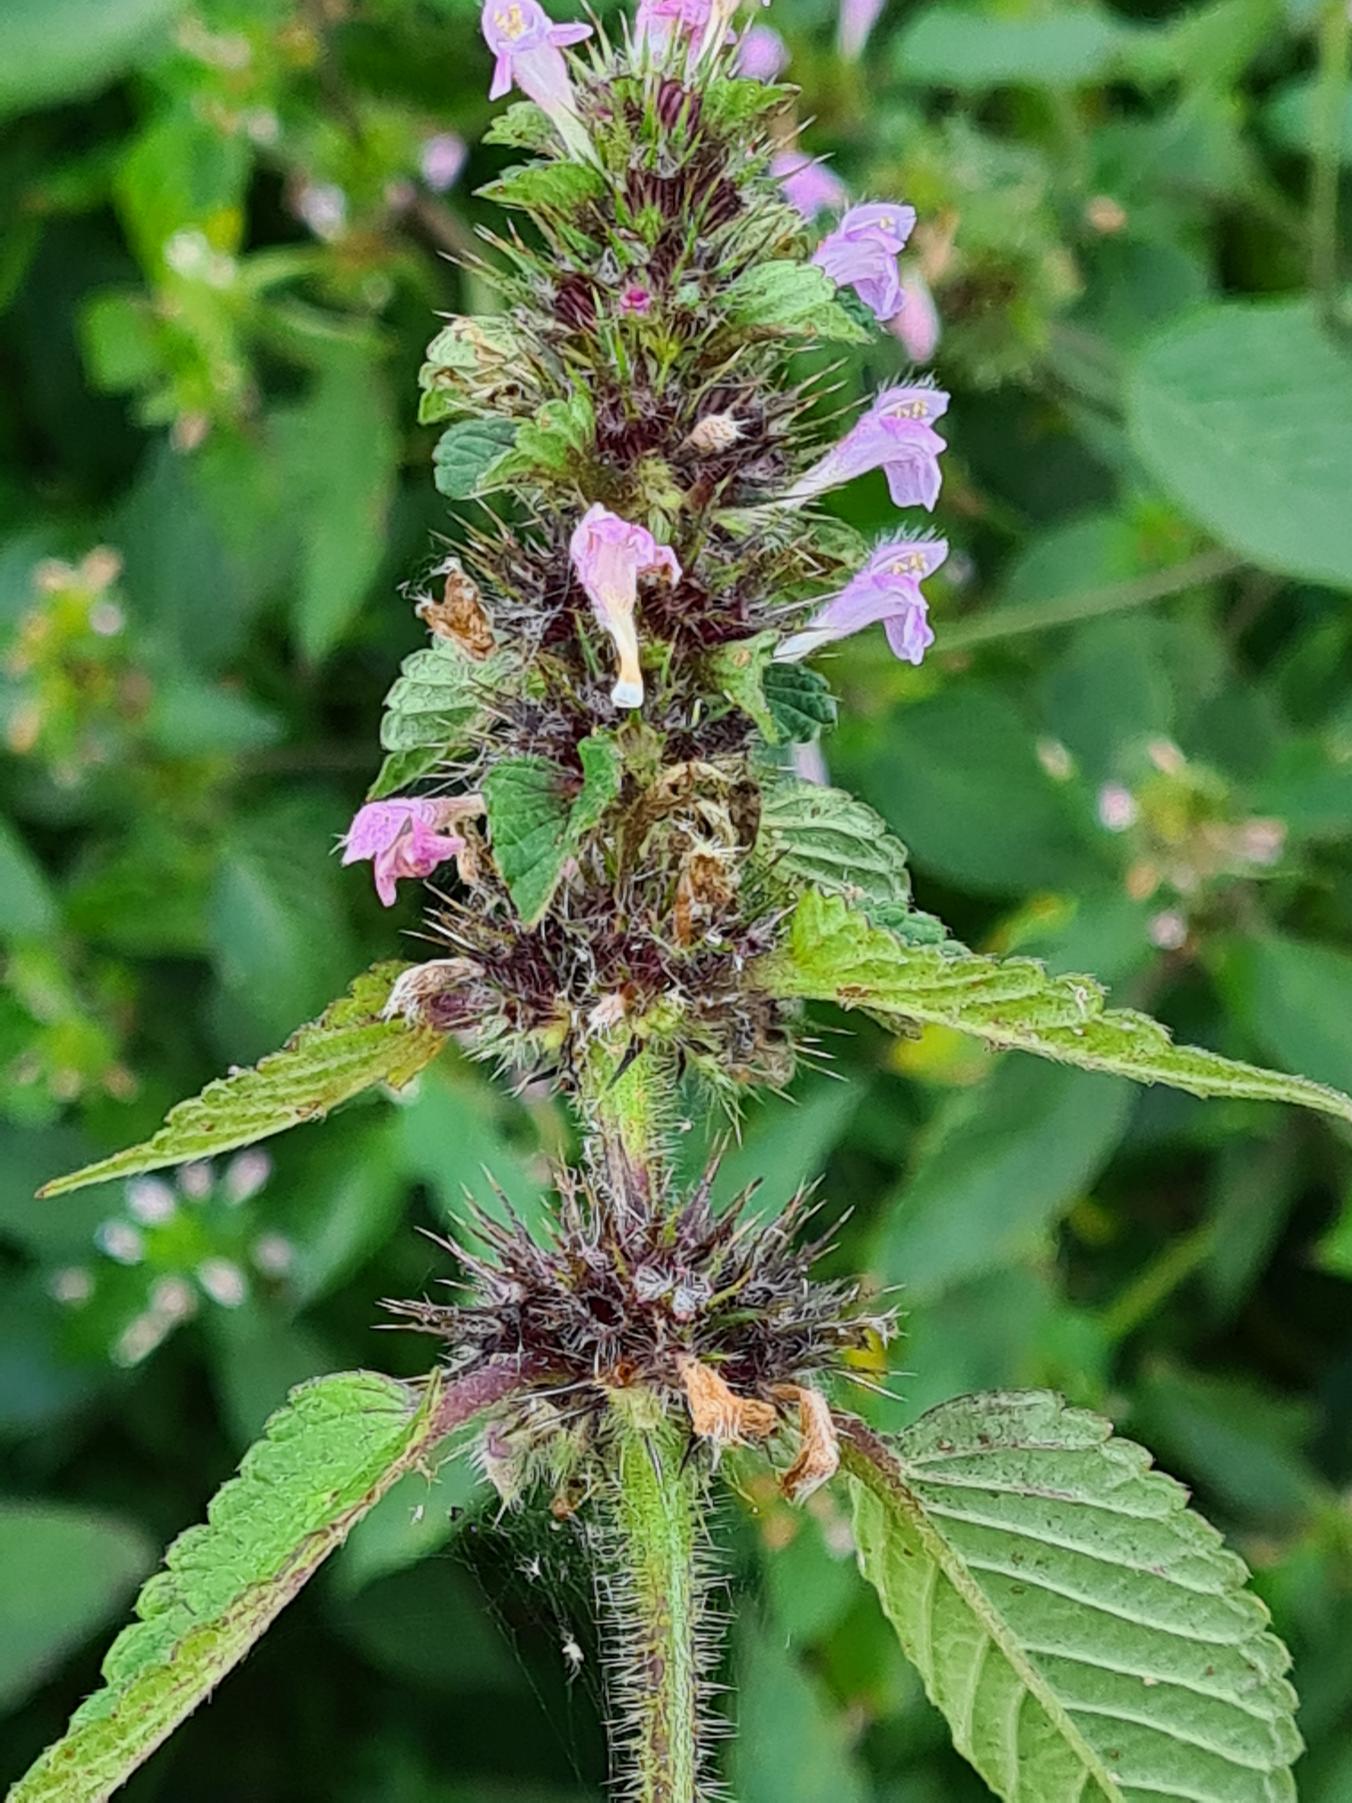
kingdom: Plantae
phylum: Tracheophyta
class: Magnoliopsida
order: Lamiales
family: Lamiaceae
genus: Galeopsis
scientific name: Galeopsis tetrahit
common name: Almindelig hanekro
